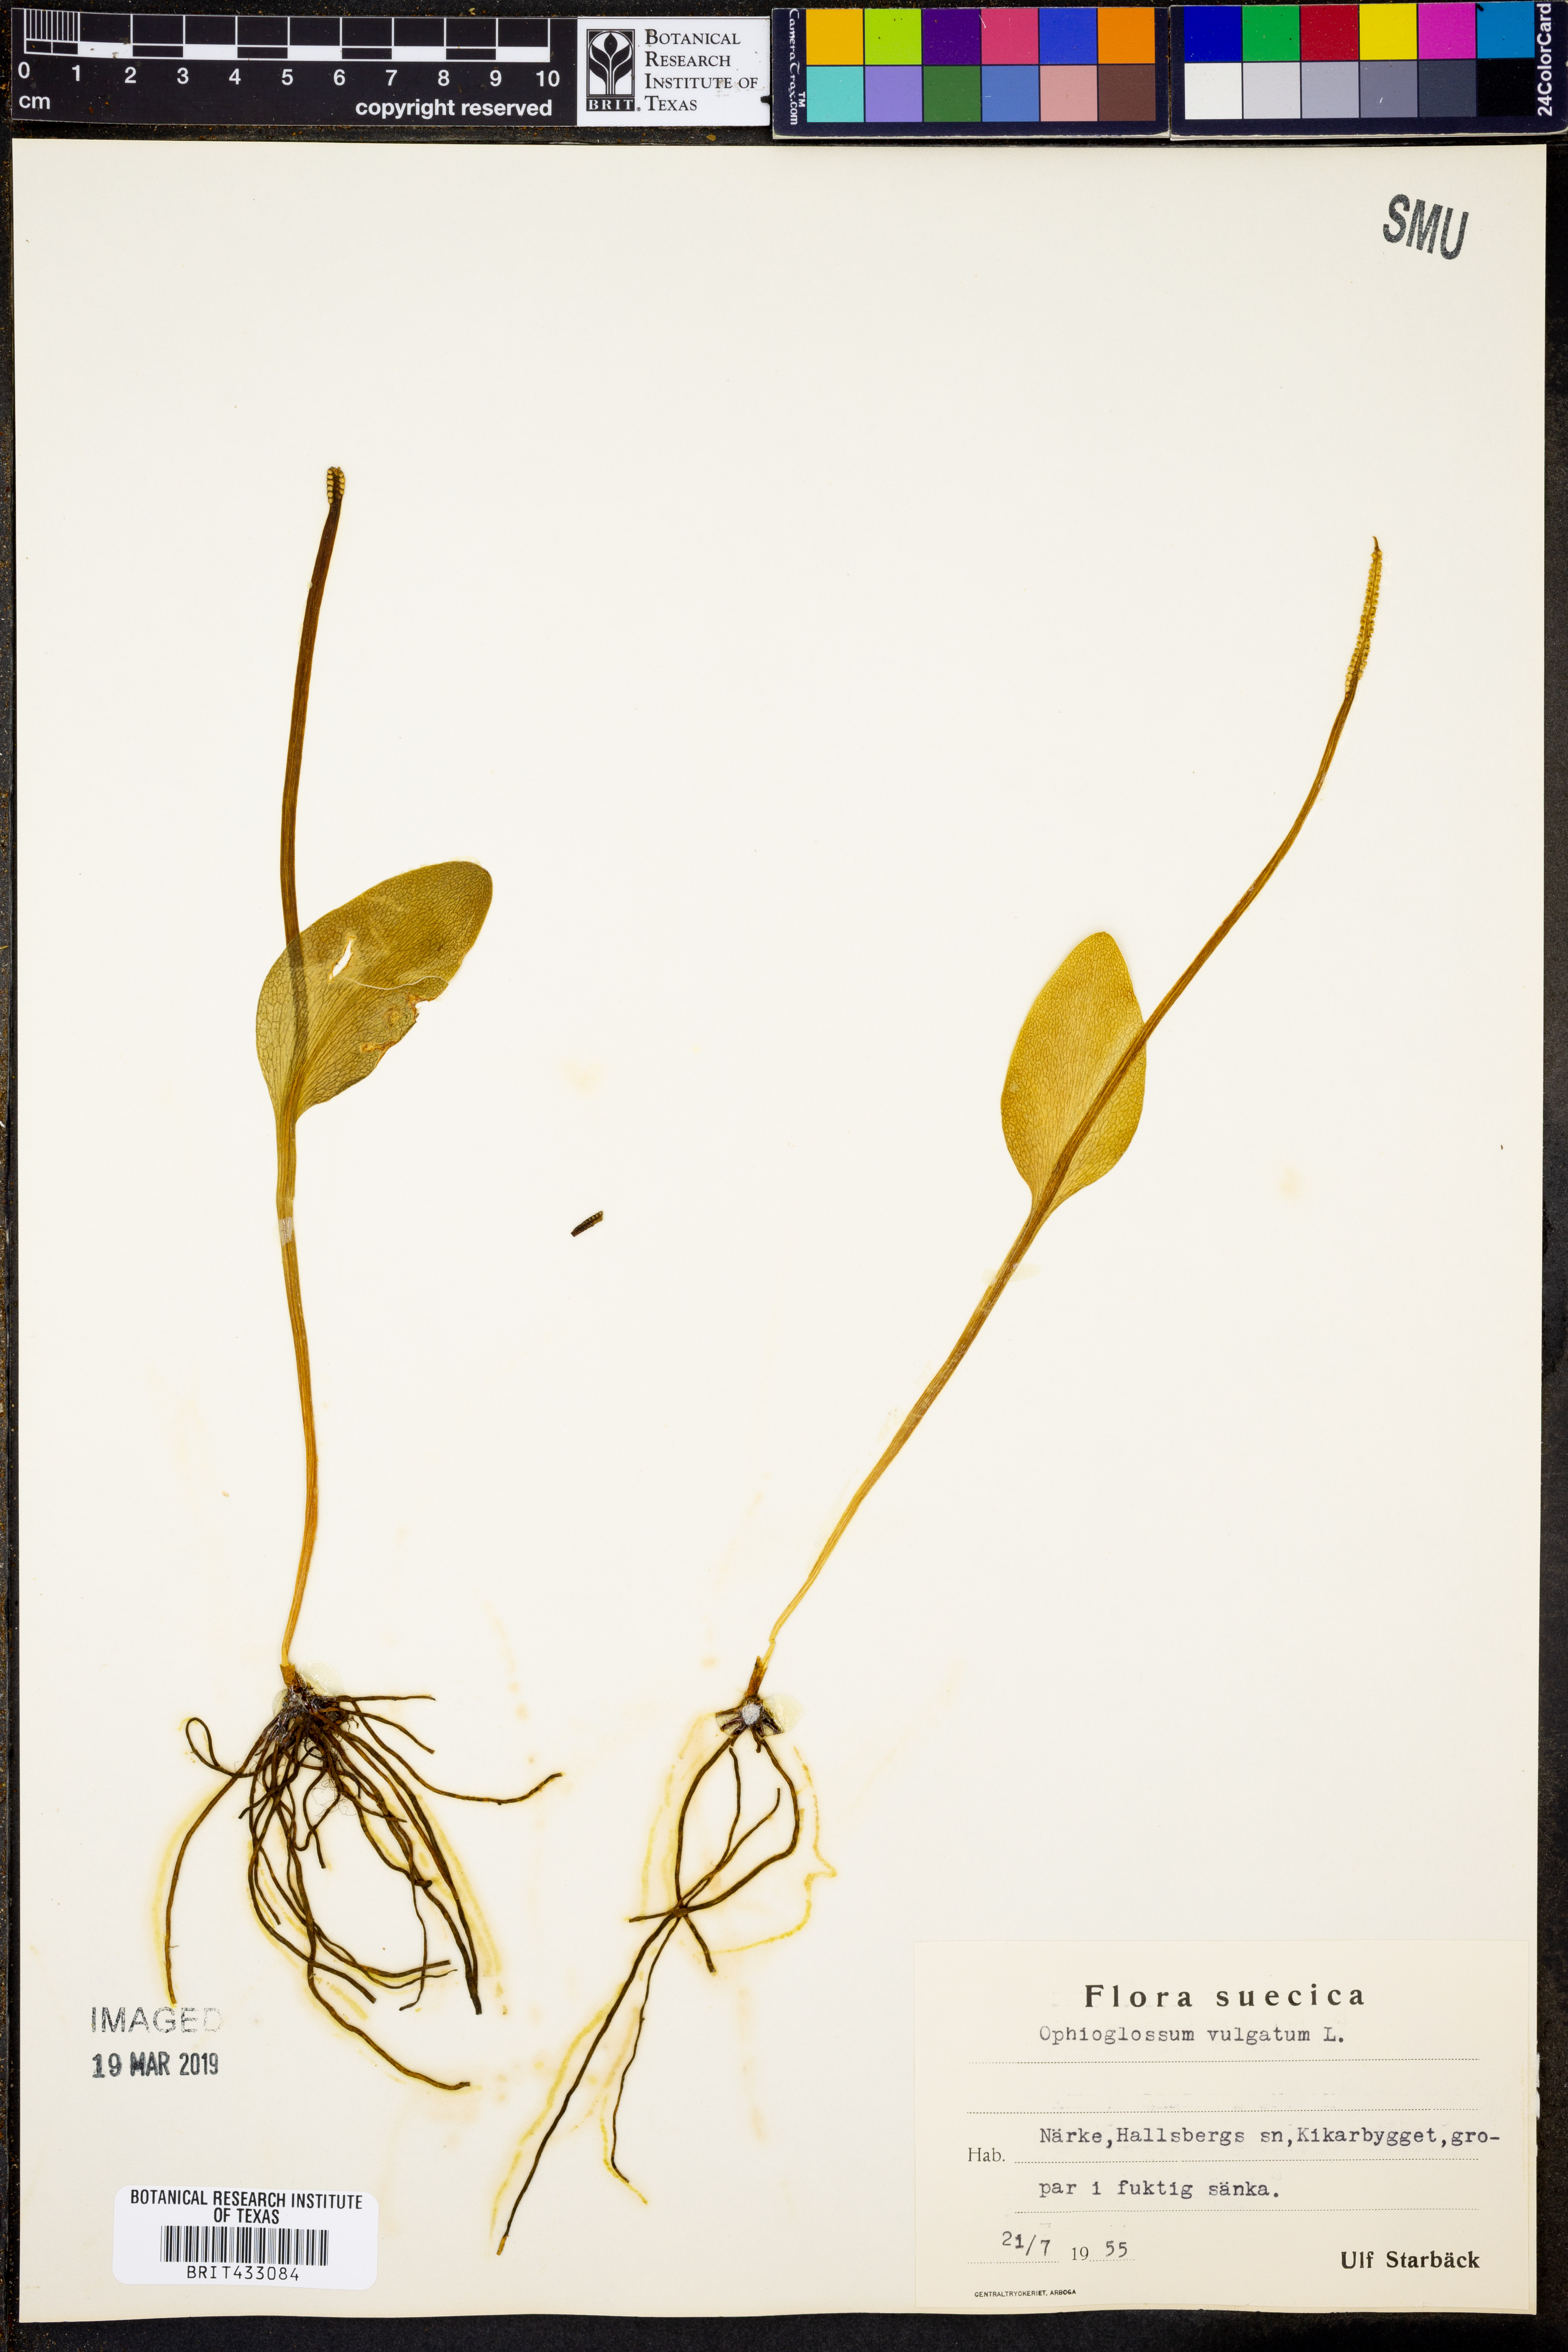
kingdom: Plantae
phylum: Tracheophyta
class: Polypodiopsida
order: Ophioglossales
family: Ophioglossaceae
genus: Ophioglossum
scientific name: Ophioglossum vulgatum
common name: Adder's-tongue
